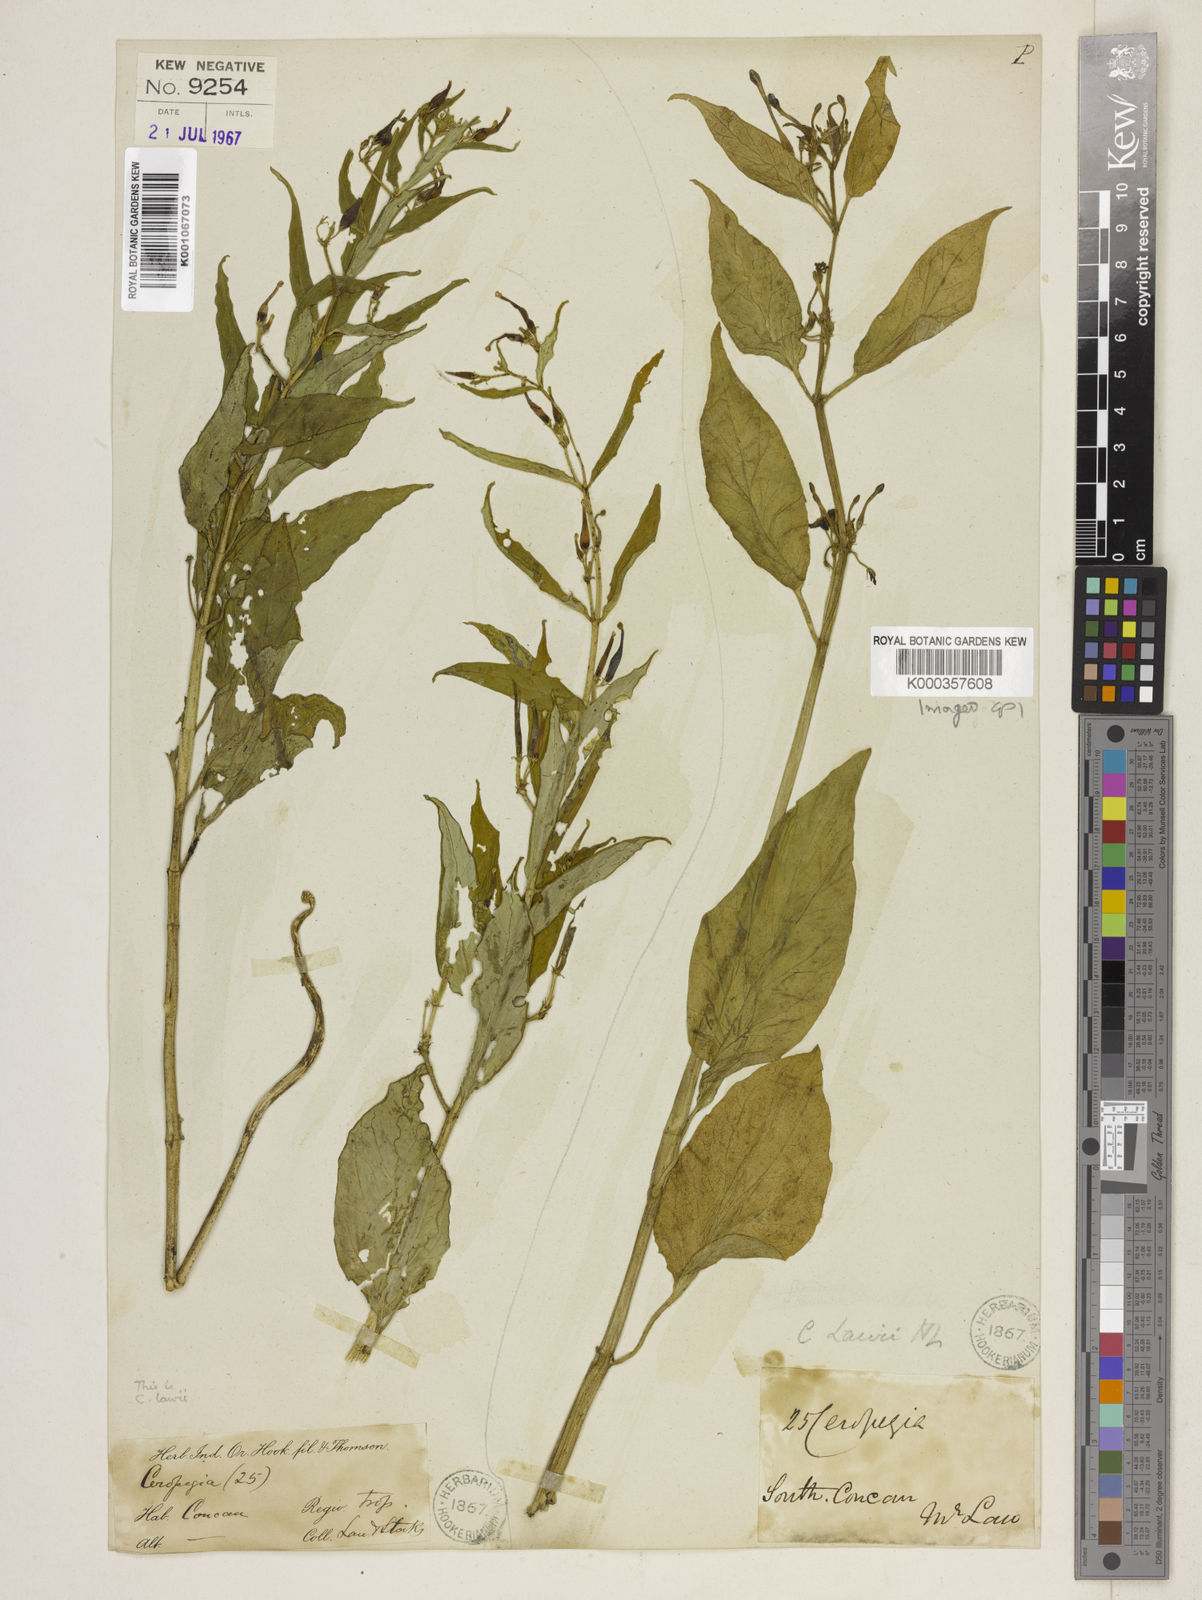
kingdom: Plantae
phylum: Tracheophyta
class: Magnoliopsida
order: Gentianales
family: Apocynaceae
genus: Ceropegia
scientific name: Ceropegia lawii
